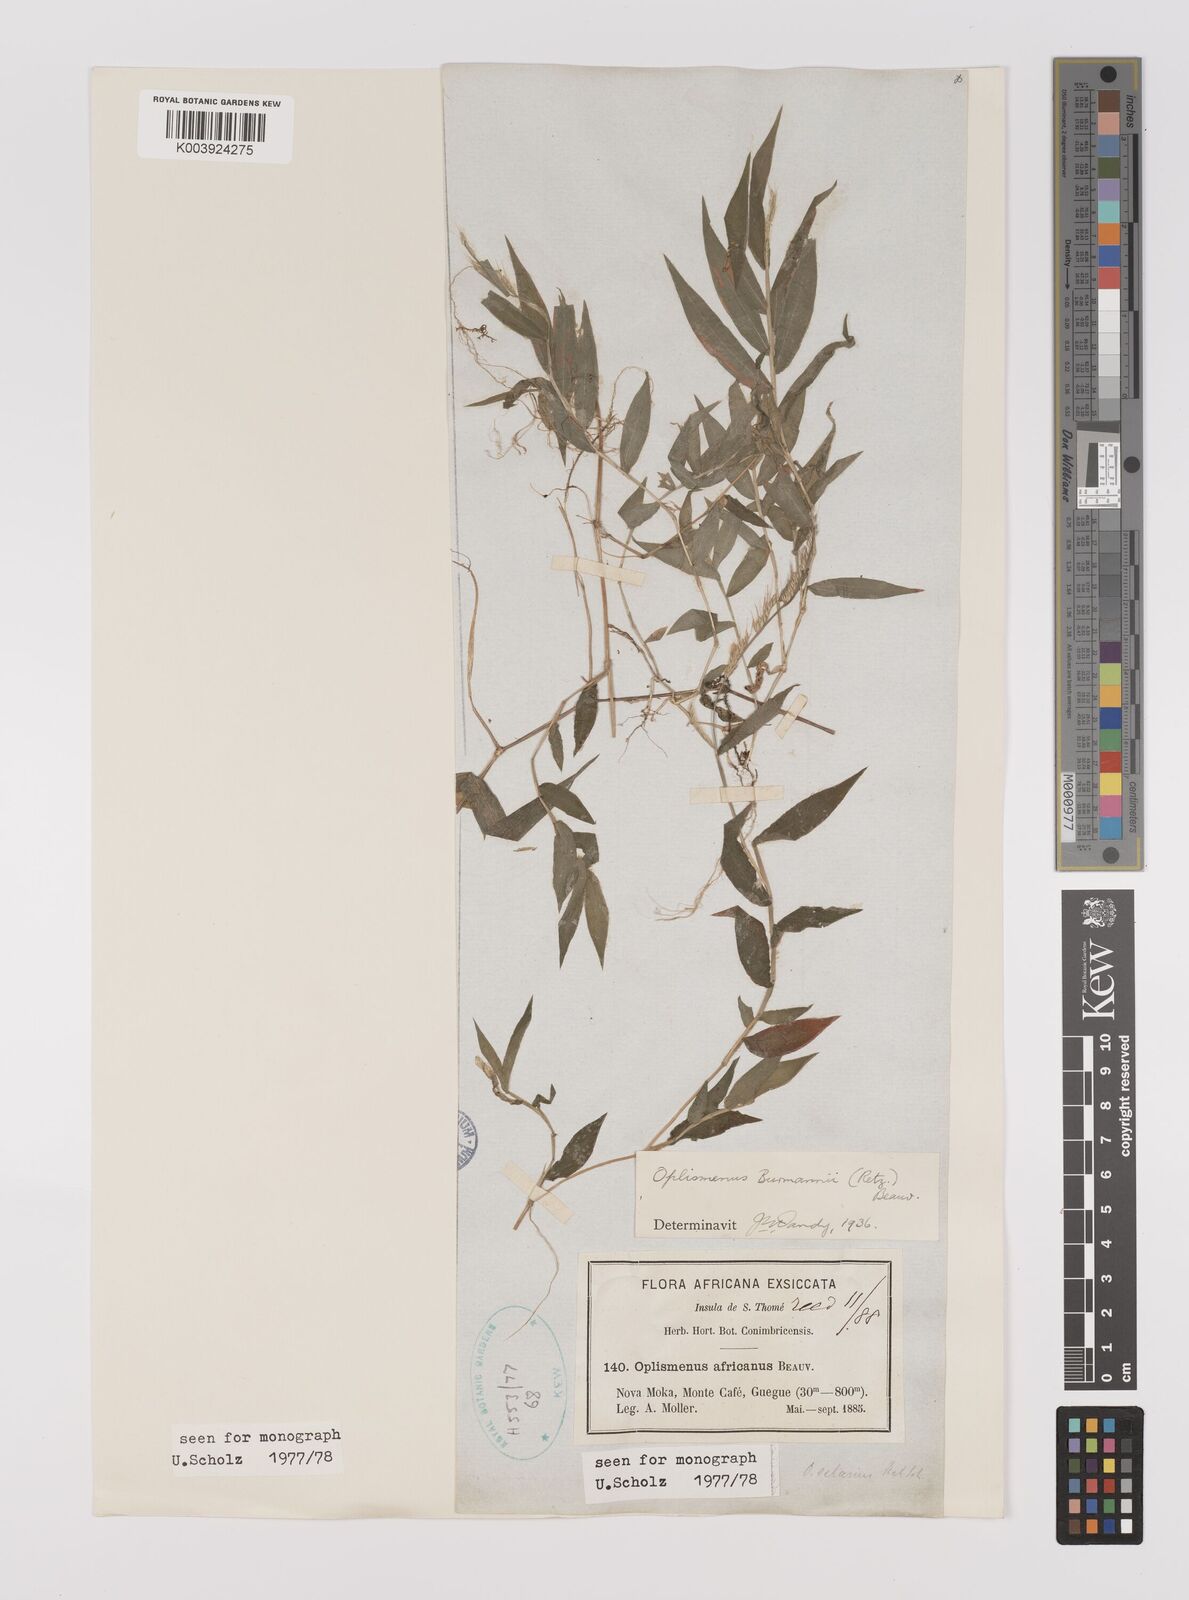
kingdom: Plantae
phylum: Tracheophyta
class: Liliopsida
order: Poales
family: Poaceae
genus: Oplismenus
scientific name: Oplismenus burmanni
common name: Burmann's basketgrass
